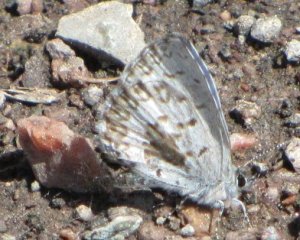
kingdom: Animalia
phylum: Arthropoda
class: Insecta
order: Lepidoptera
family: Lycaenidae
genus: Celastrina
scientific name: Celastrina
